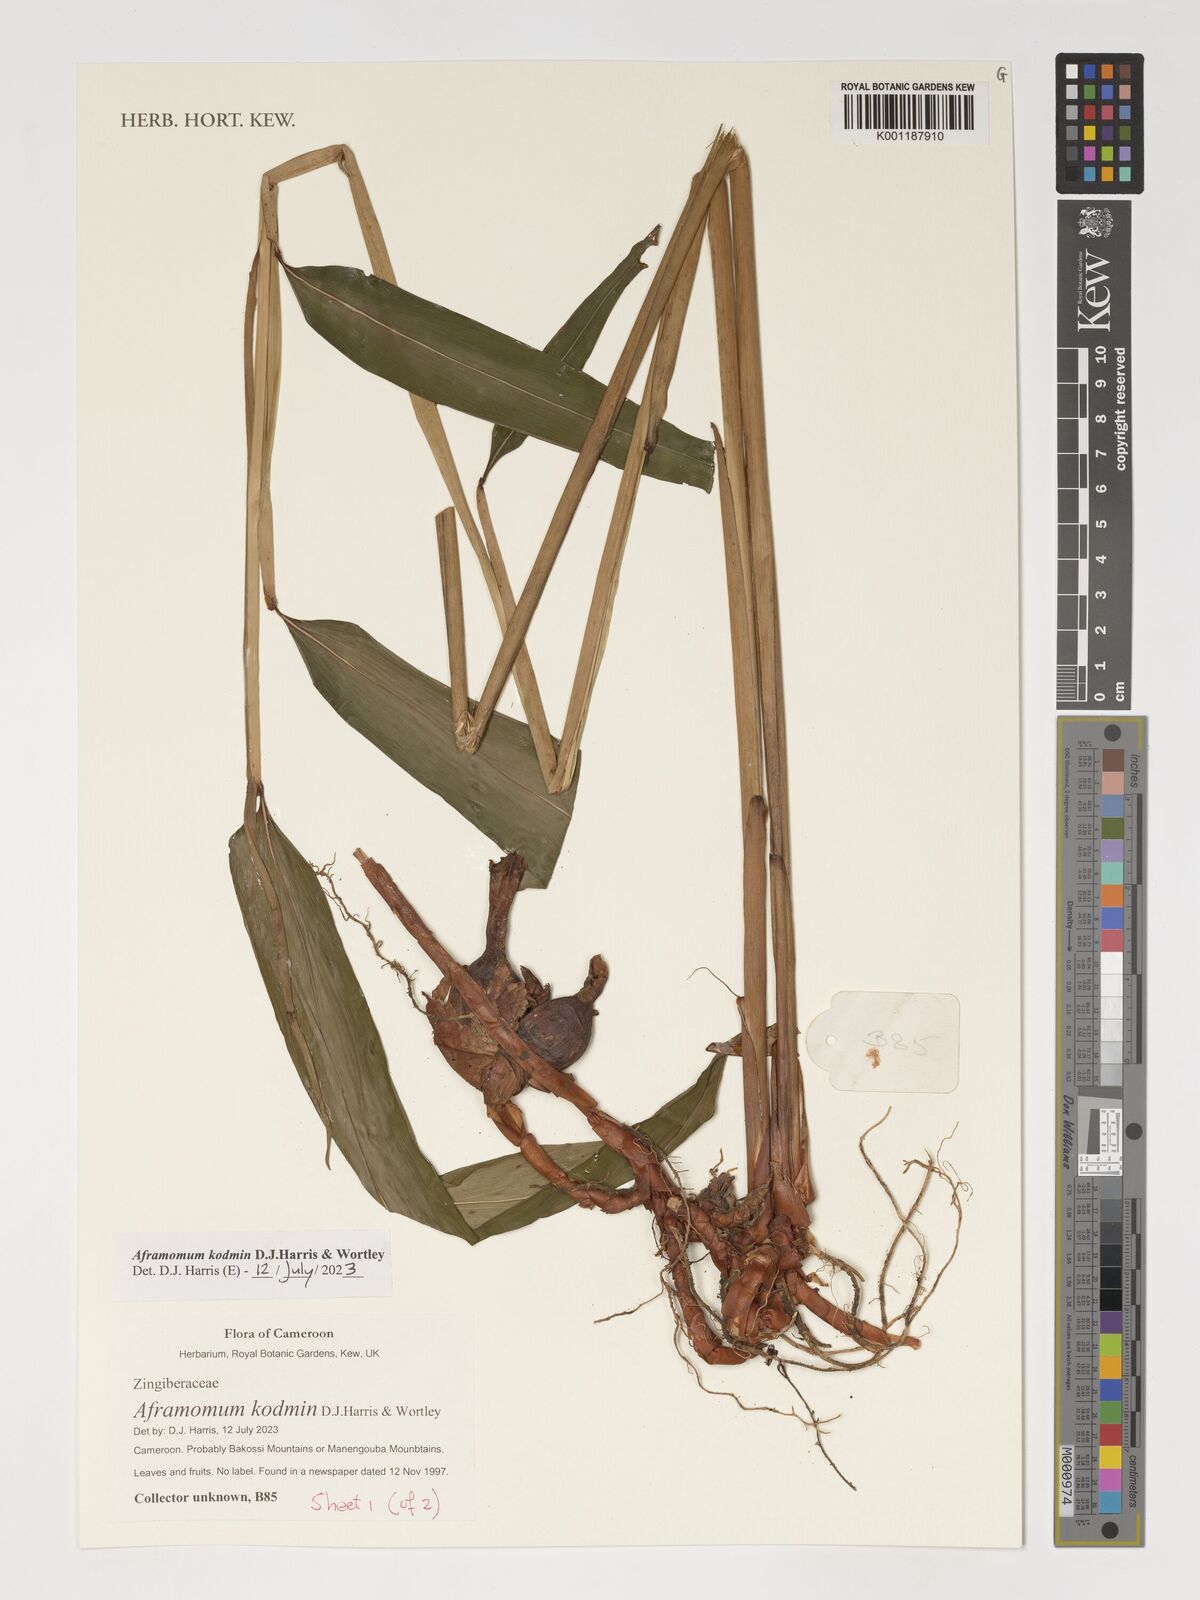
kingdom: Plantae
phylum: Tracheophyta
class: Liliopsida
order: Zingiberales
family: Zingiberaceae
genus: Aframomum
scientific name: Aframomum kodmin
